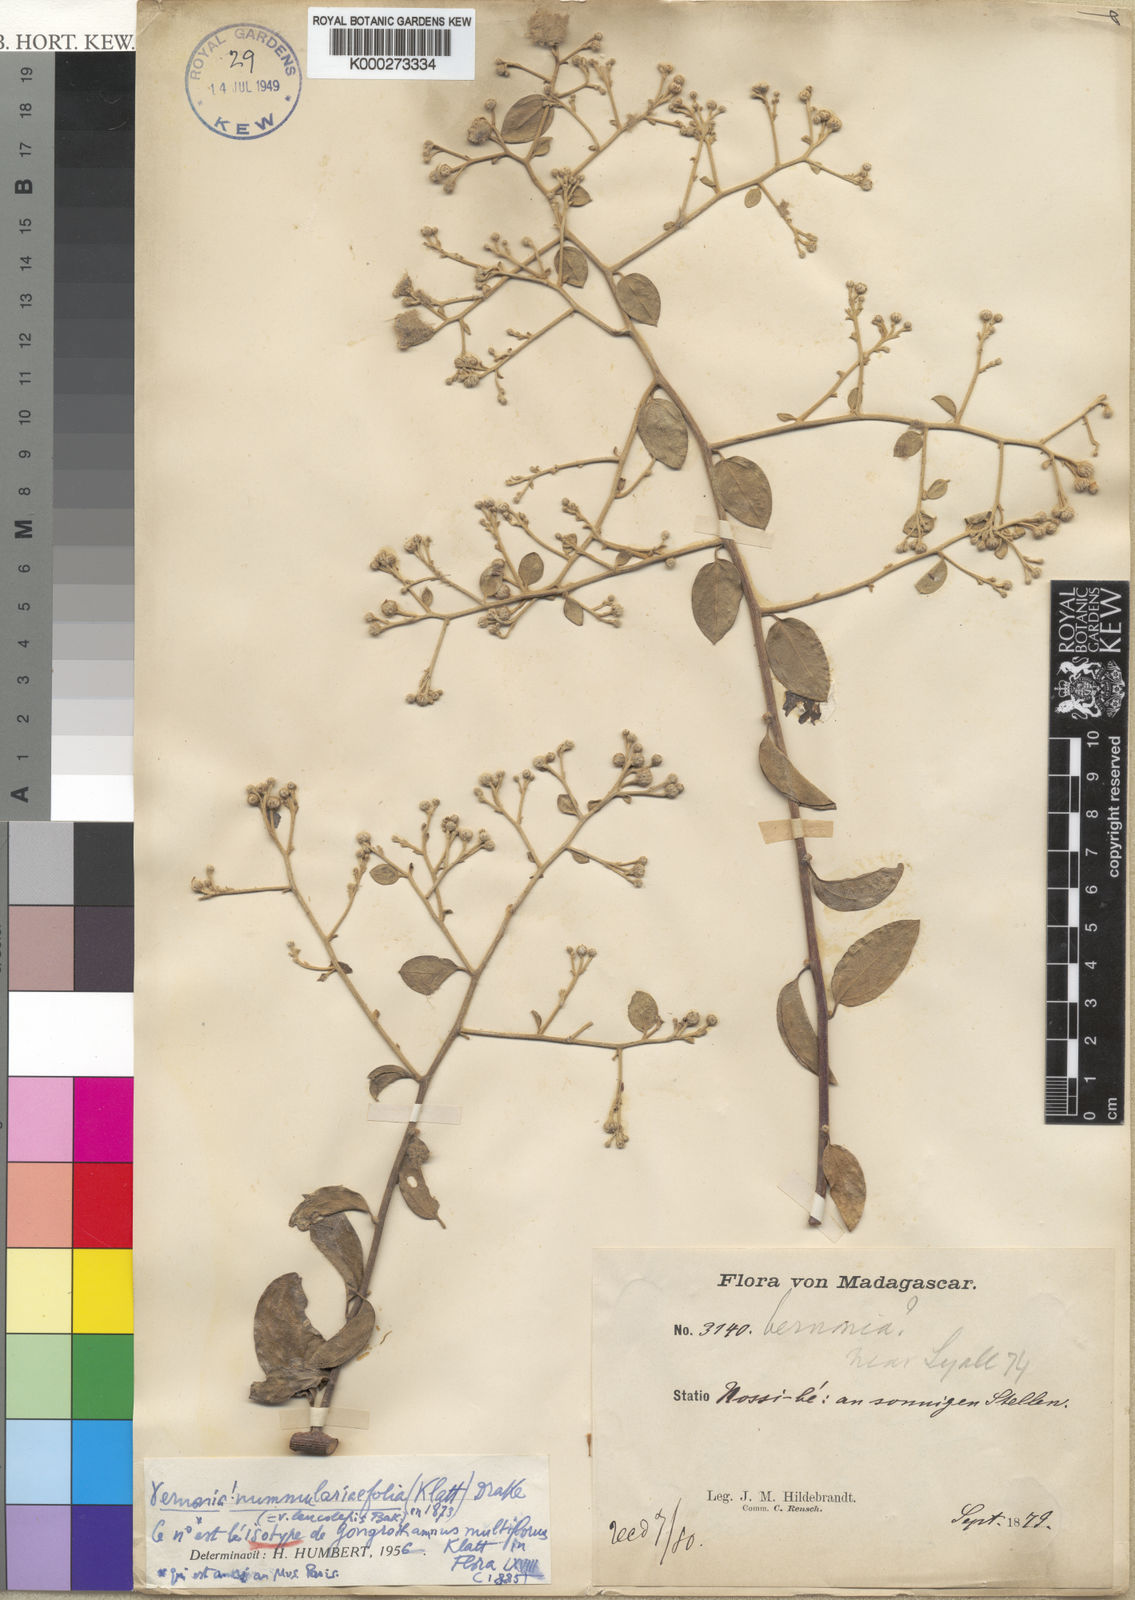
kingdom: Plantae
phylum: Tracheophyta
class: Magnoliopsida
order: Asterales
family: Asteraceae
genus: Distephanus
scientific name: Distephanus
